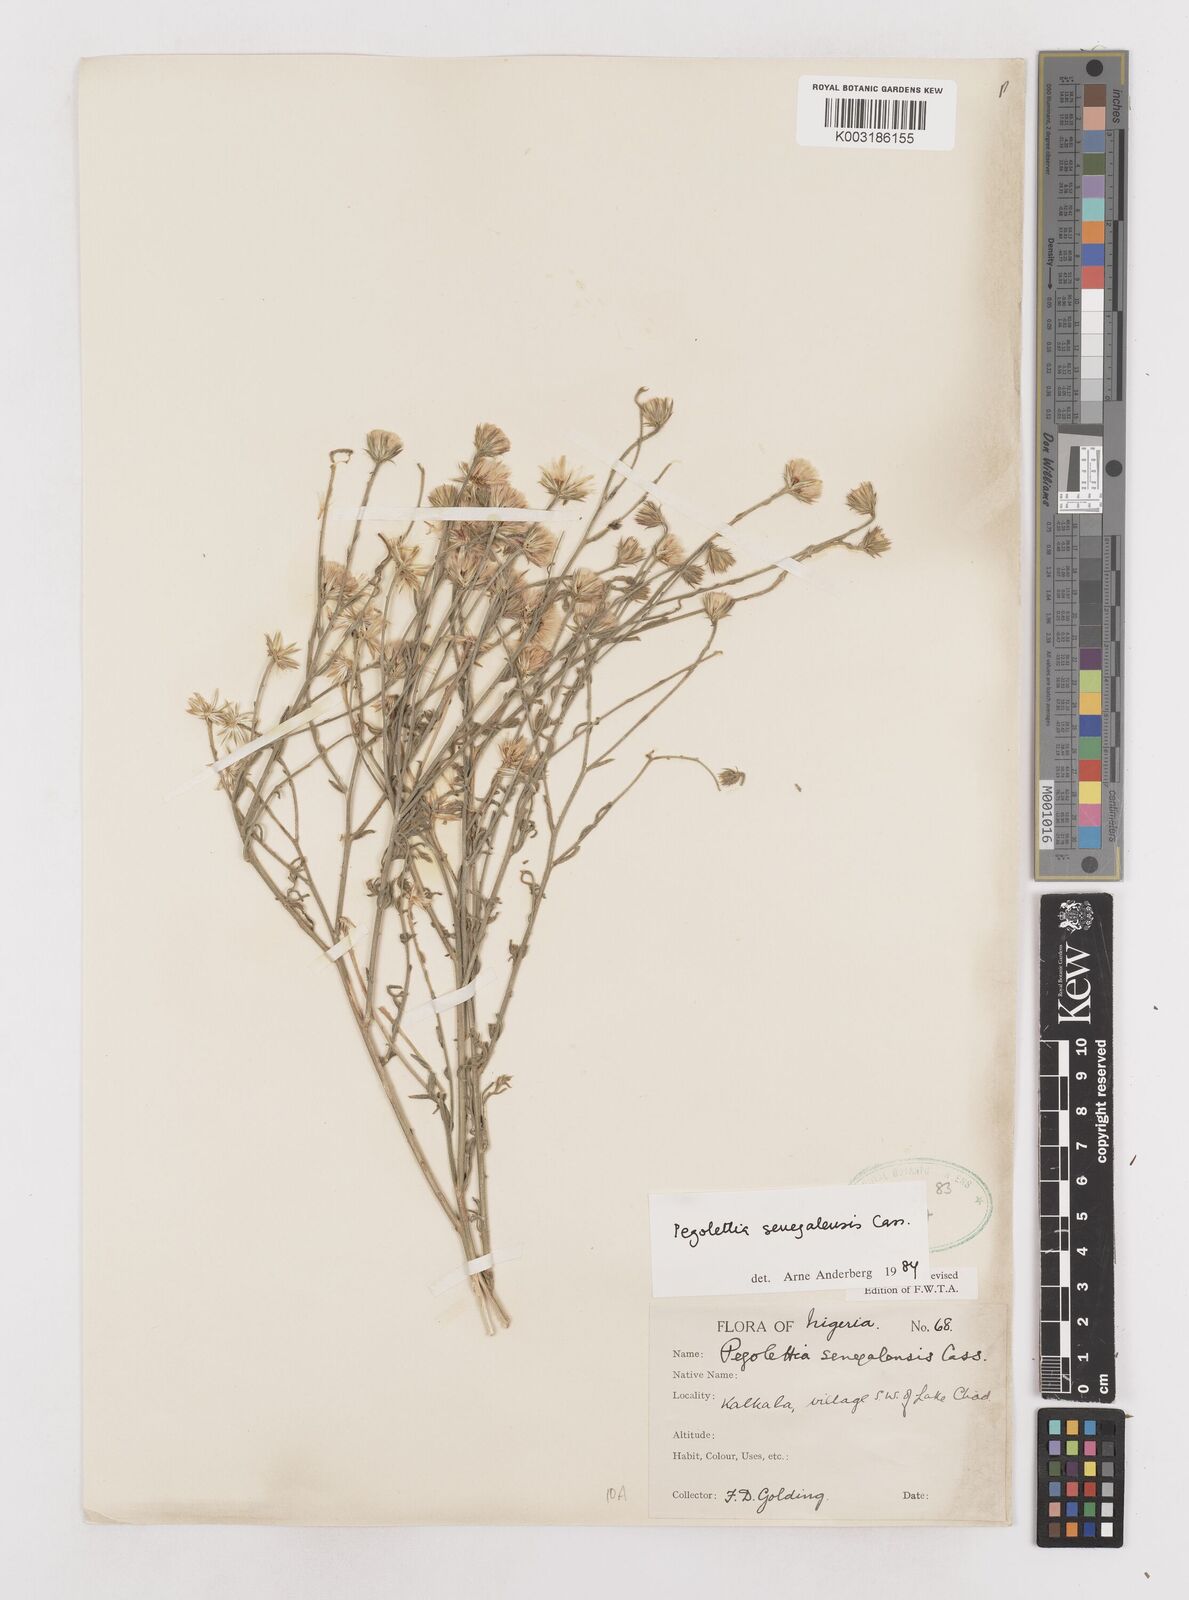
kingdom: Plantae
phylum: Tracheophyta
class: Magnoliopsida
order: Asterales
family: Asteraceae
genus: Pegolettia
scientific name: Pegolettia senegalensis
